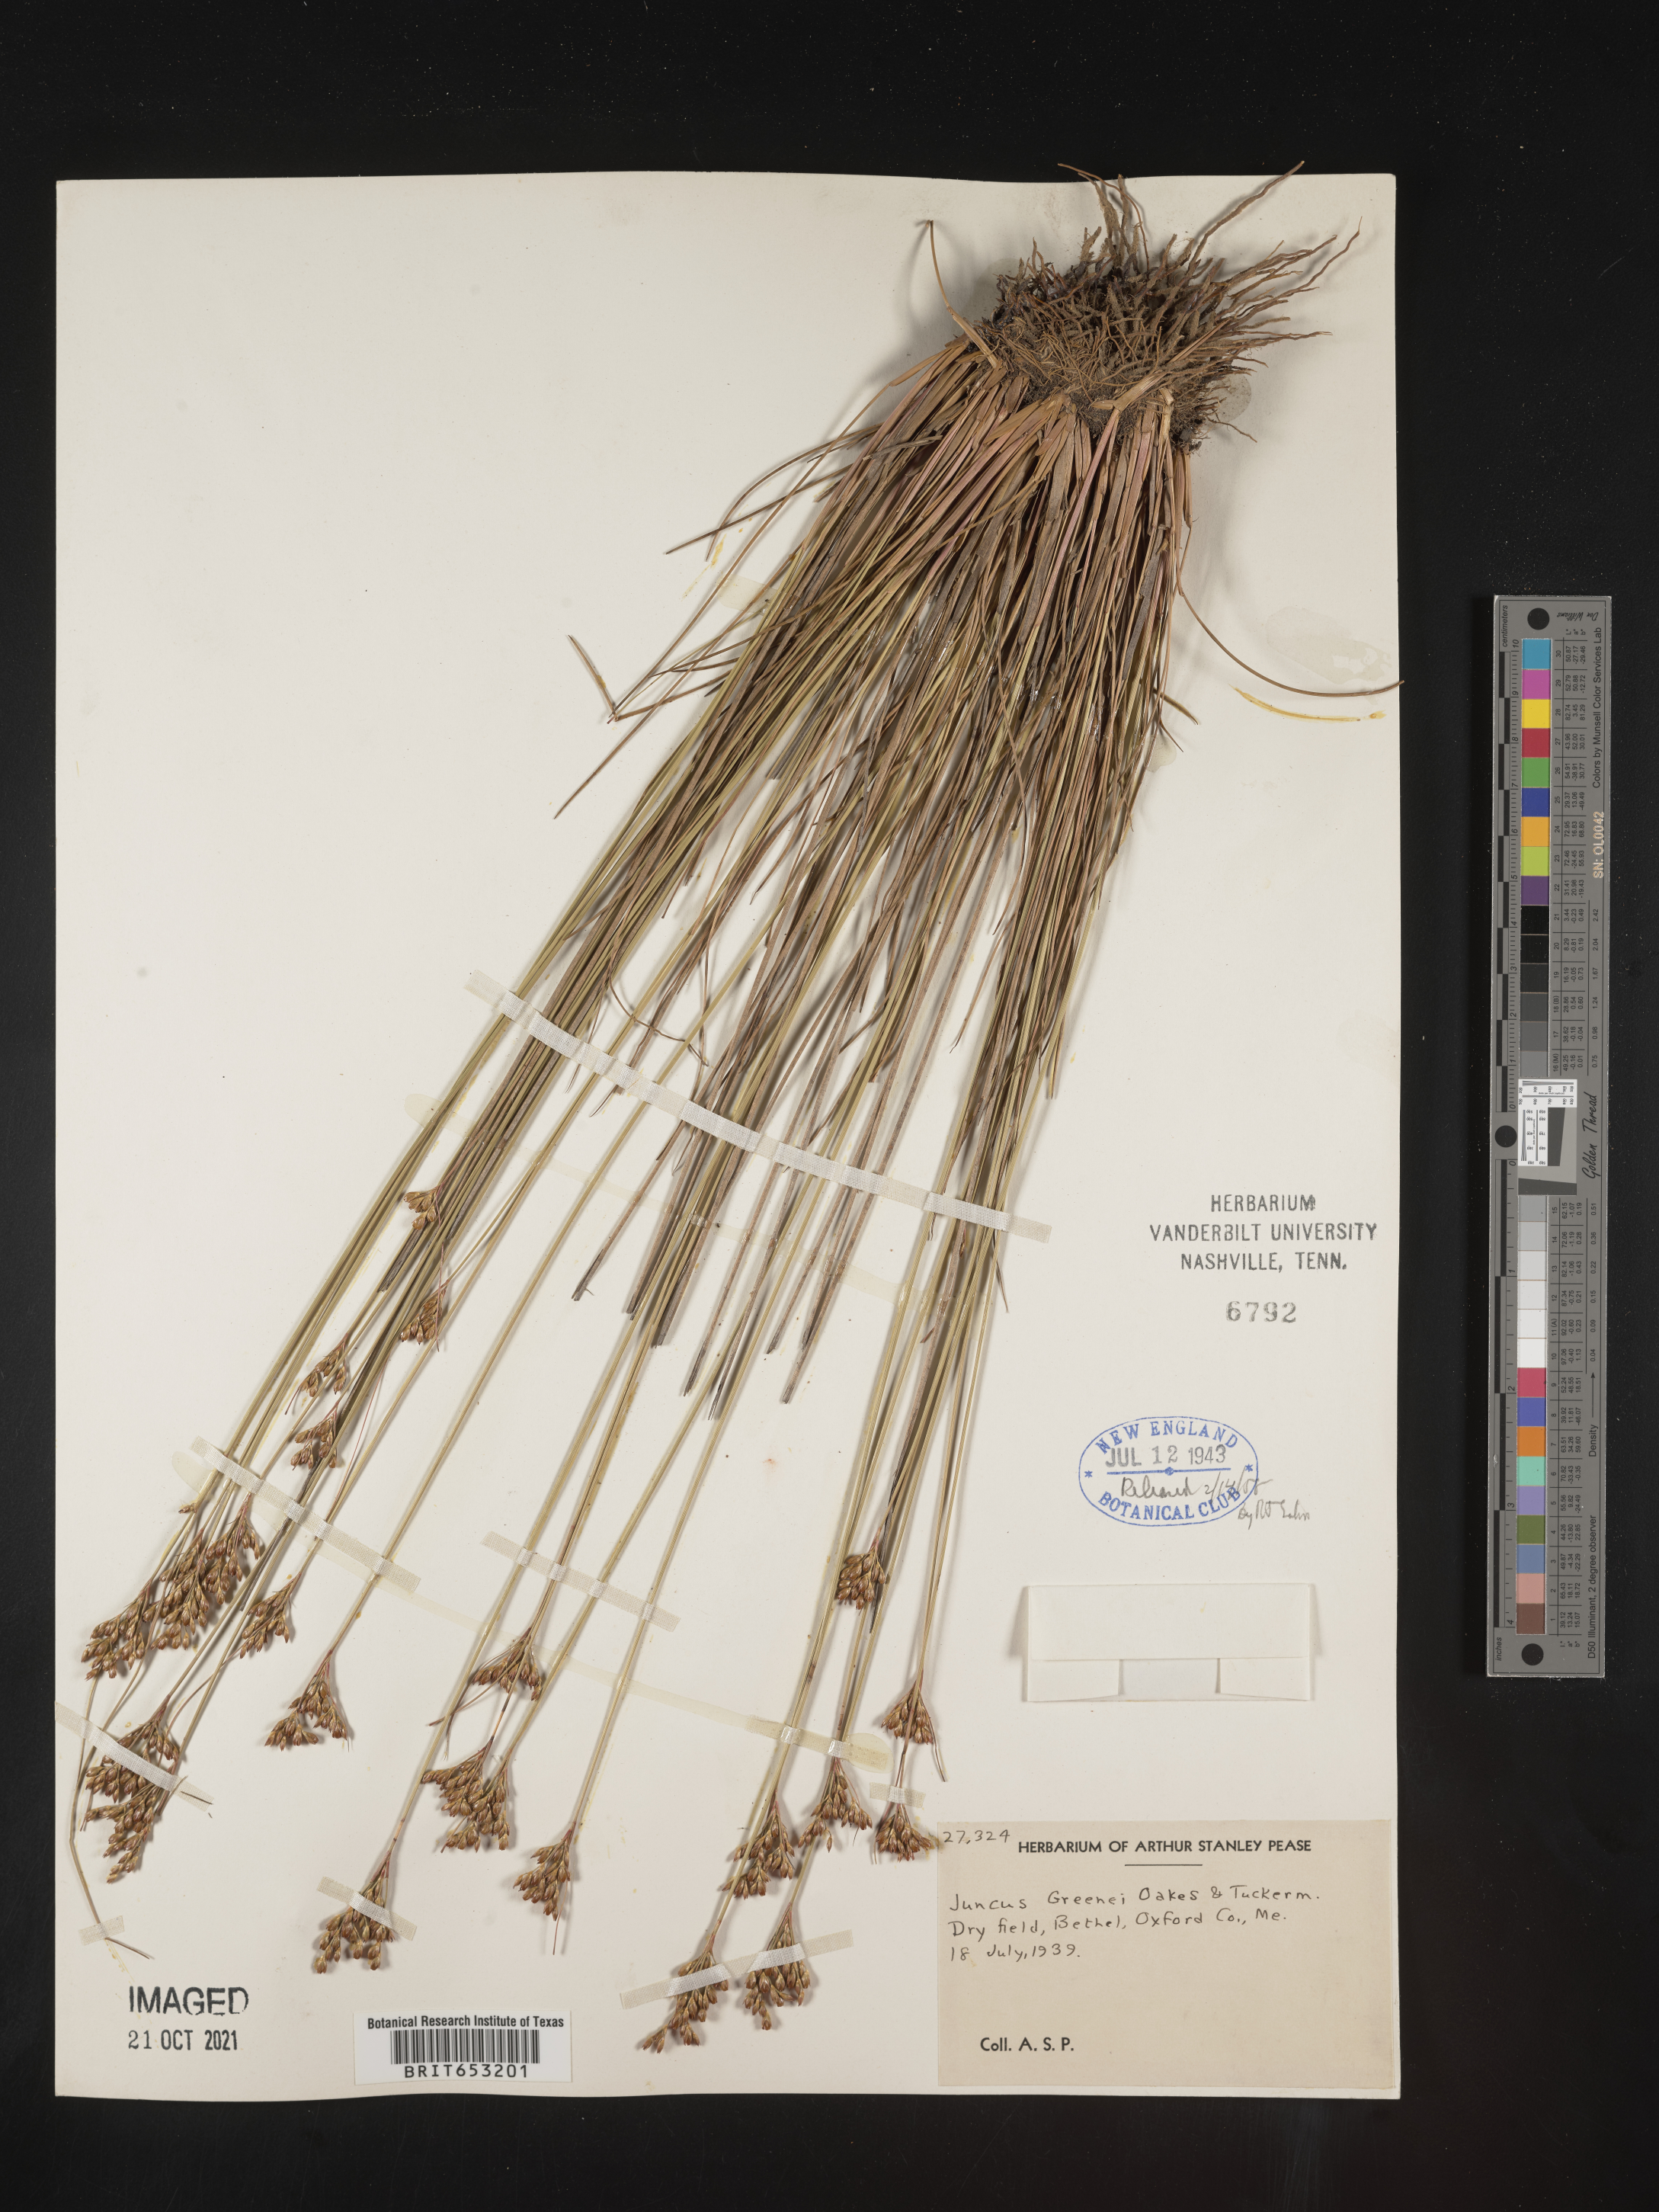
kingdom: Plantae
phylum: Tracheophyta
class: Liliopsida
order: Poales
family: Juncaceae
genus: Juncus
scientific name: Juncus greenei
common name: Greene's rush
